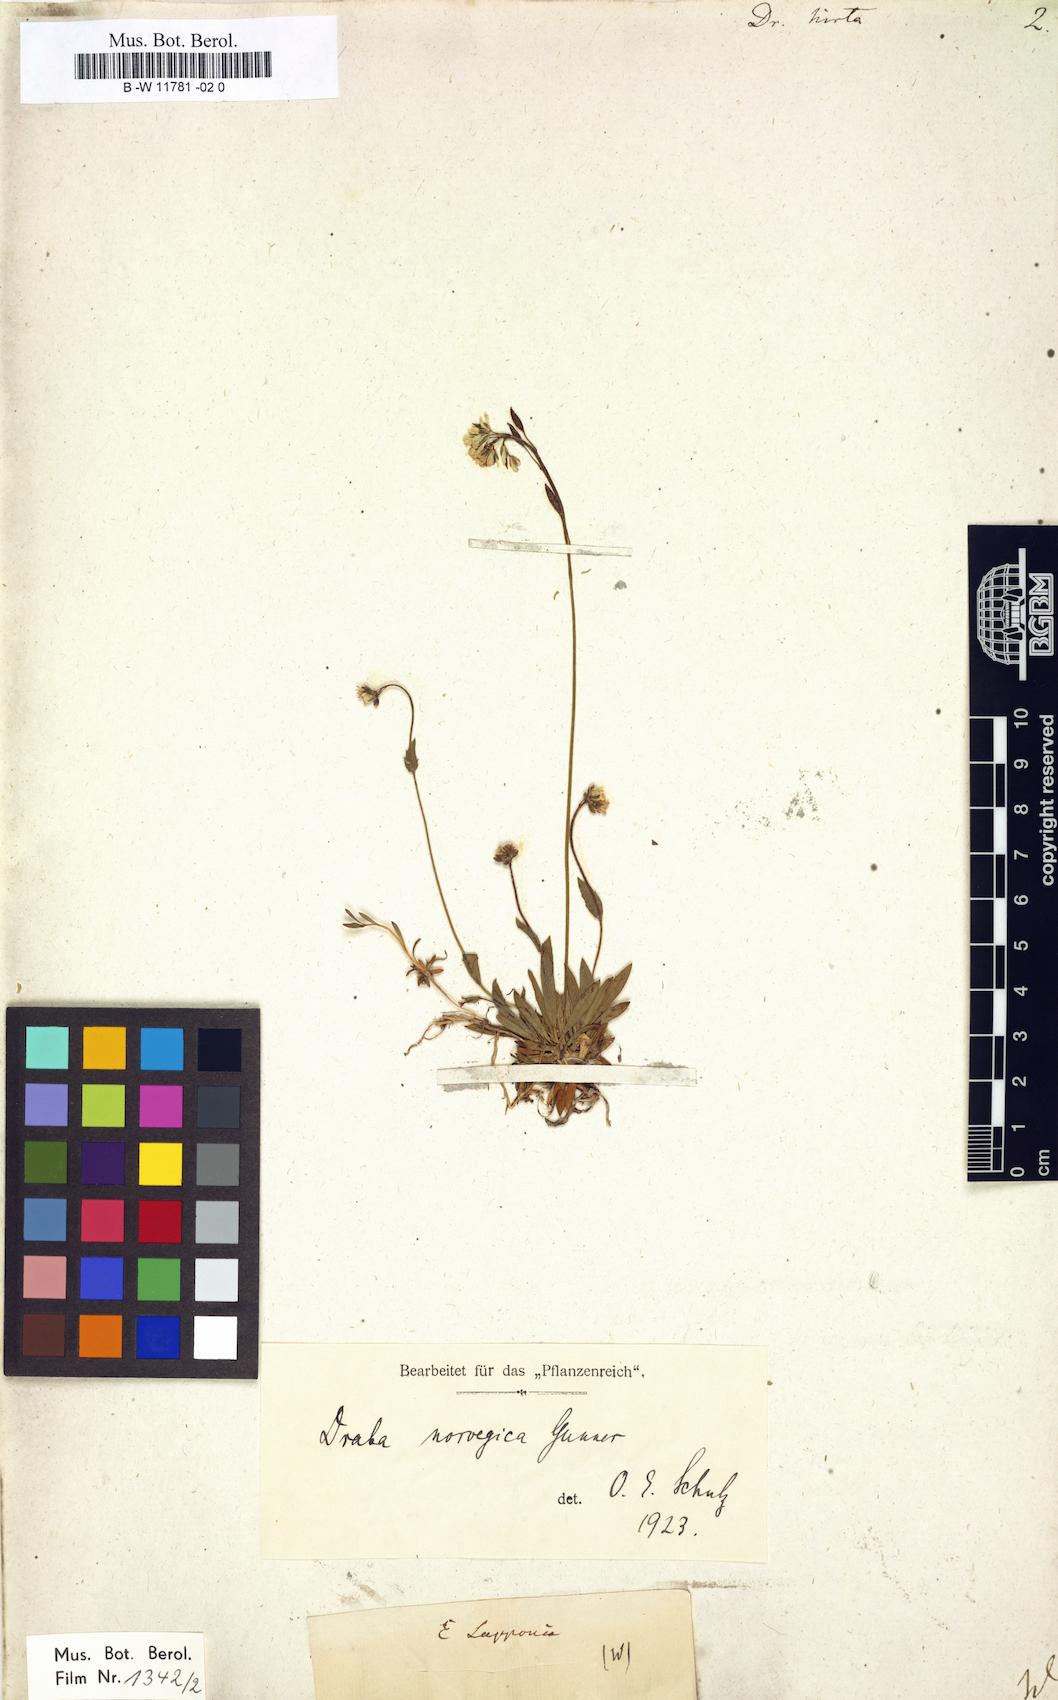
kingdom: Plantae
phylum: Tracheophyta
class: Magnoliopsida
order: Brassicales
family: Brassicaceae
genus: Draba
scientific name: Draba glabella
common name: Glaucous draba
